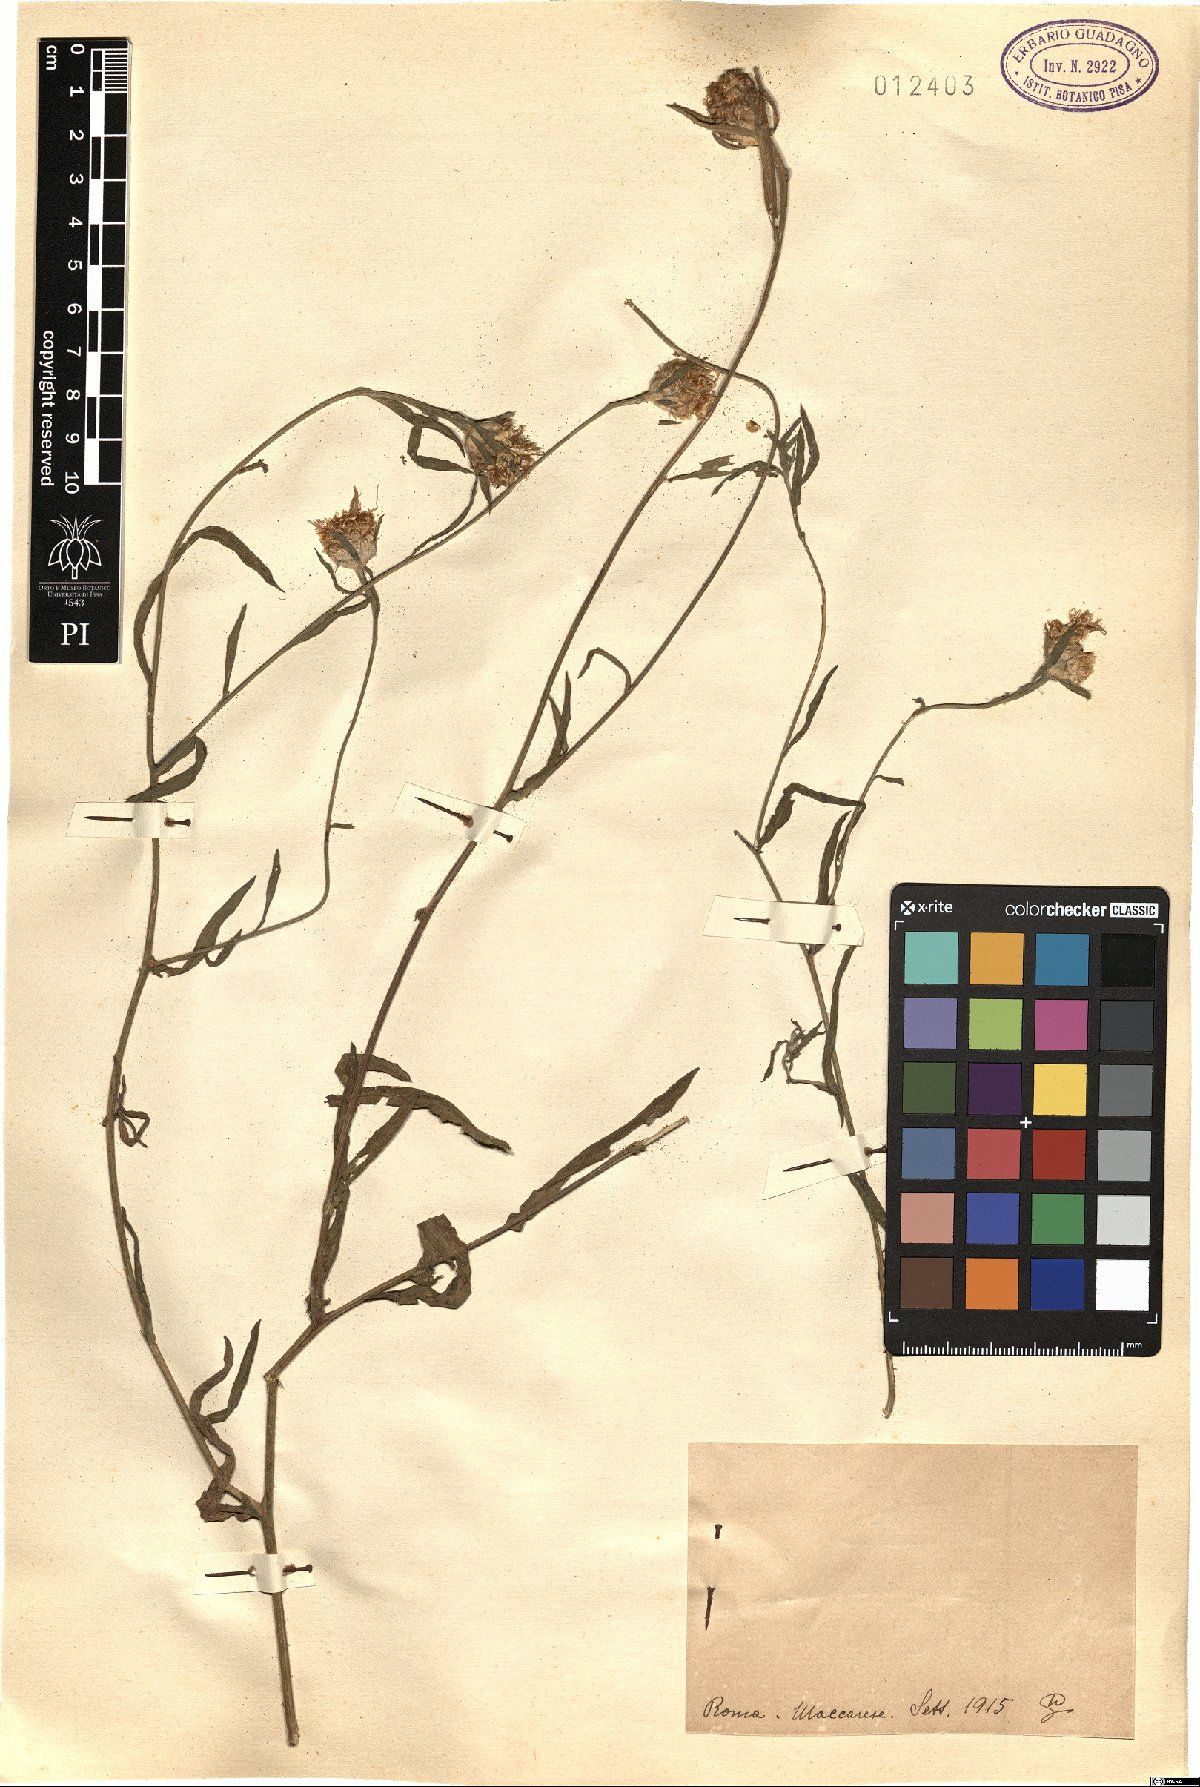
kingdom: Plantae
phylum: Tracheophyta
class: Magnoliopsida
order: Asterales
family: Asteraceae
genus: Centaurea
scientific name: Centaurea
